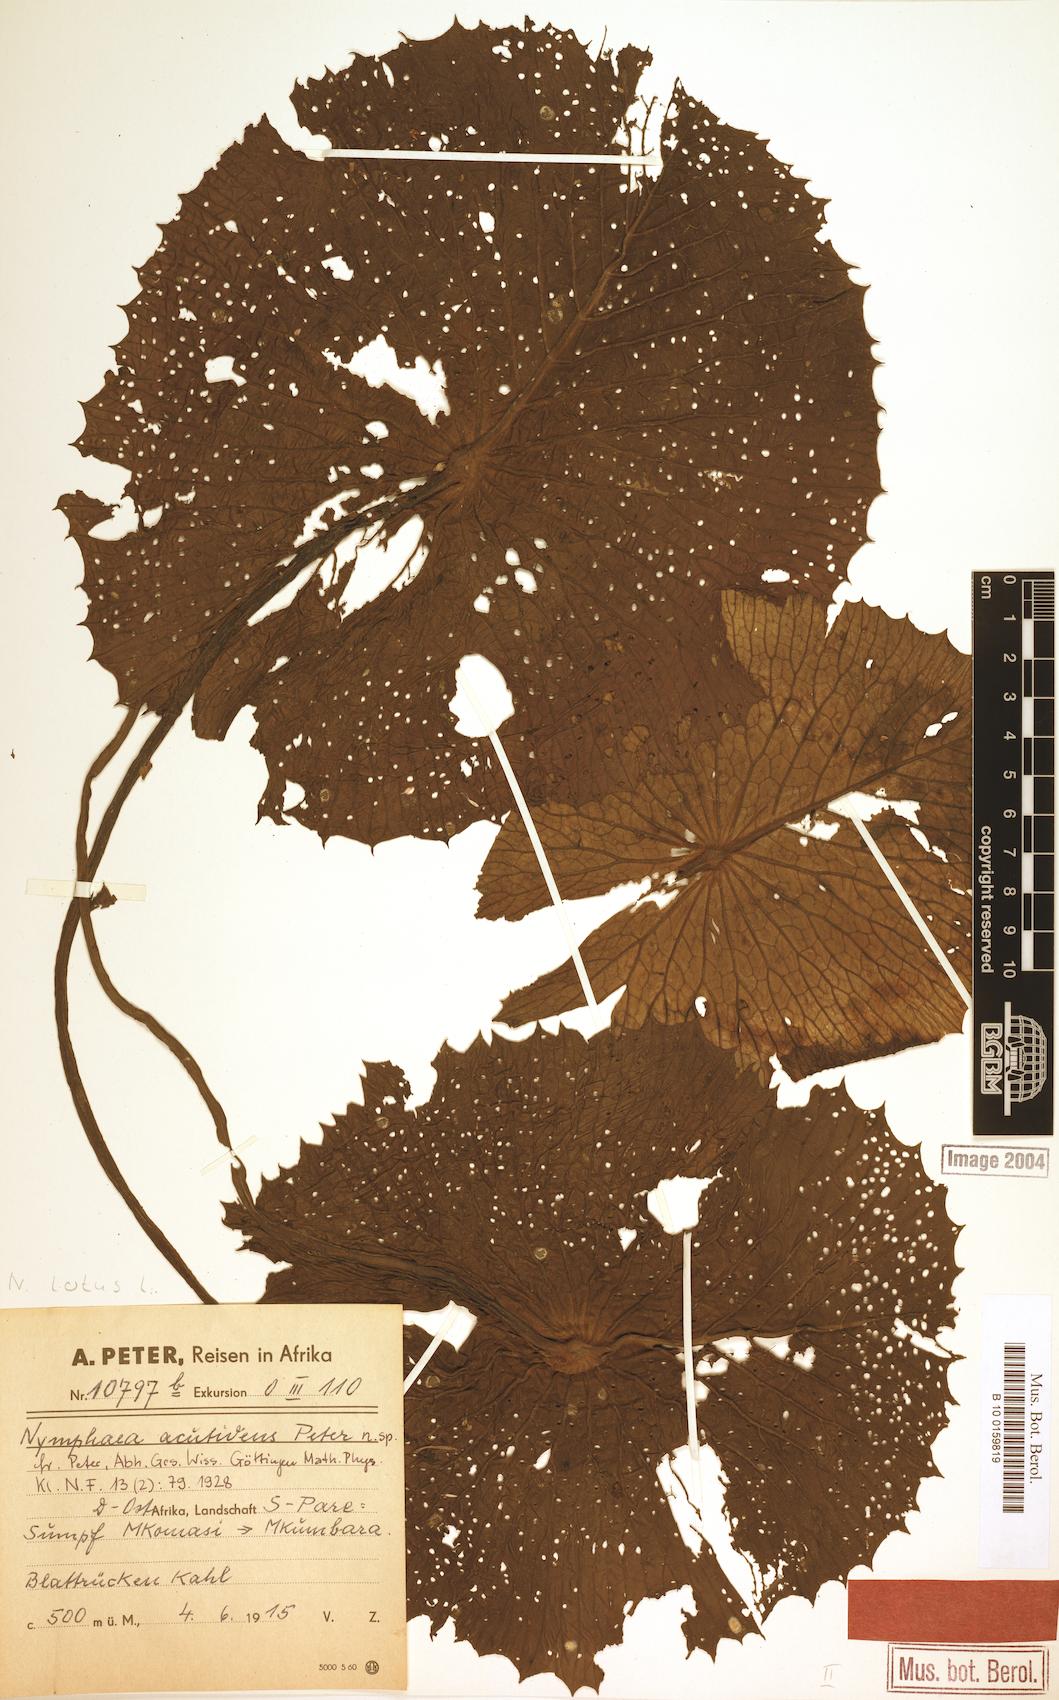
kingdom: Plantae
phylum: Tracheophyta
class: Magnoliopsida
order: Nymphaeales
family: Nymphaeaceae
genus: Nymphaea
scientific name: Nymphaea lotus
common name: White egyptian lotus
